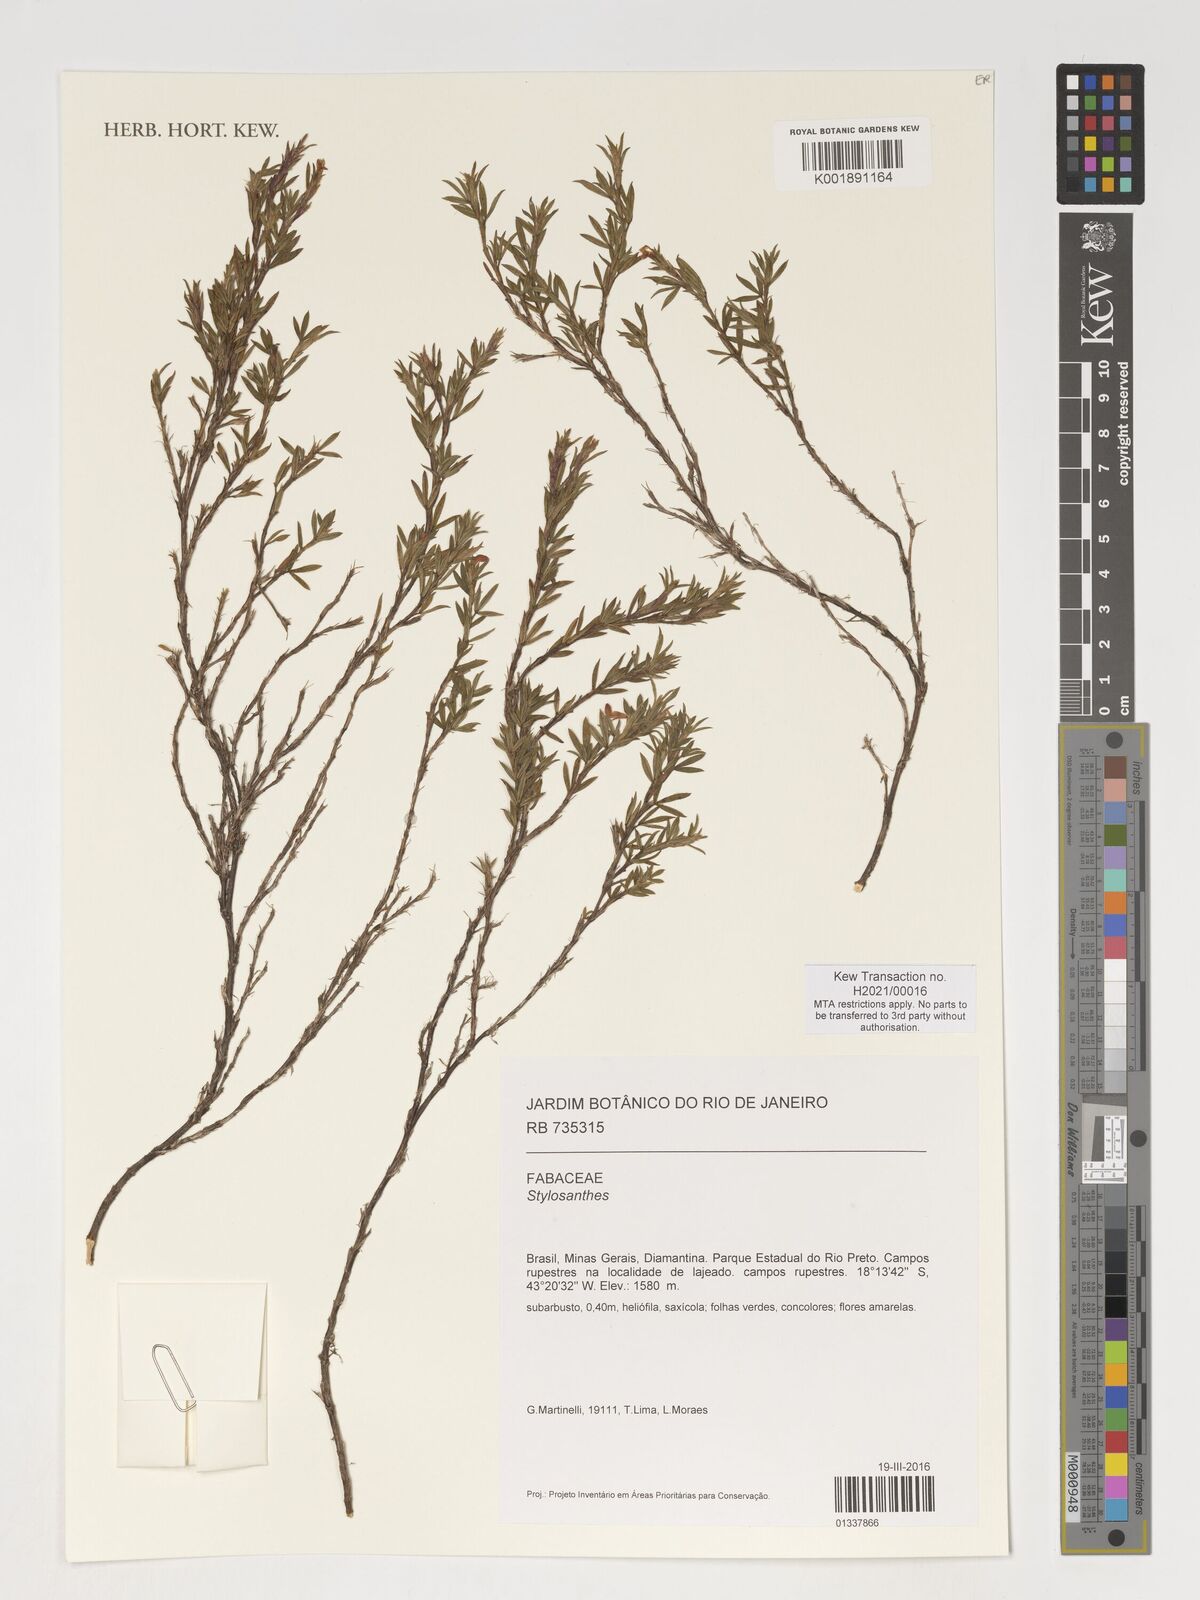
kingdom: Plantae
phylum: Tracheophyta
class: Magnoliopsida
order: Fabales
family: Fabaceae
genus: Stylosanthes
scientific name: Stylosanthes
